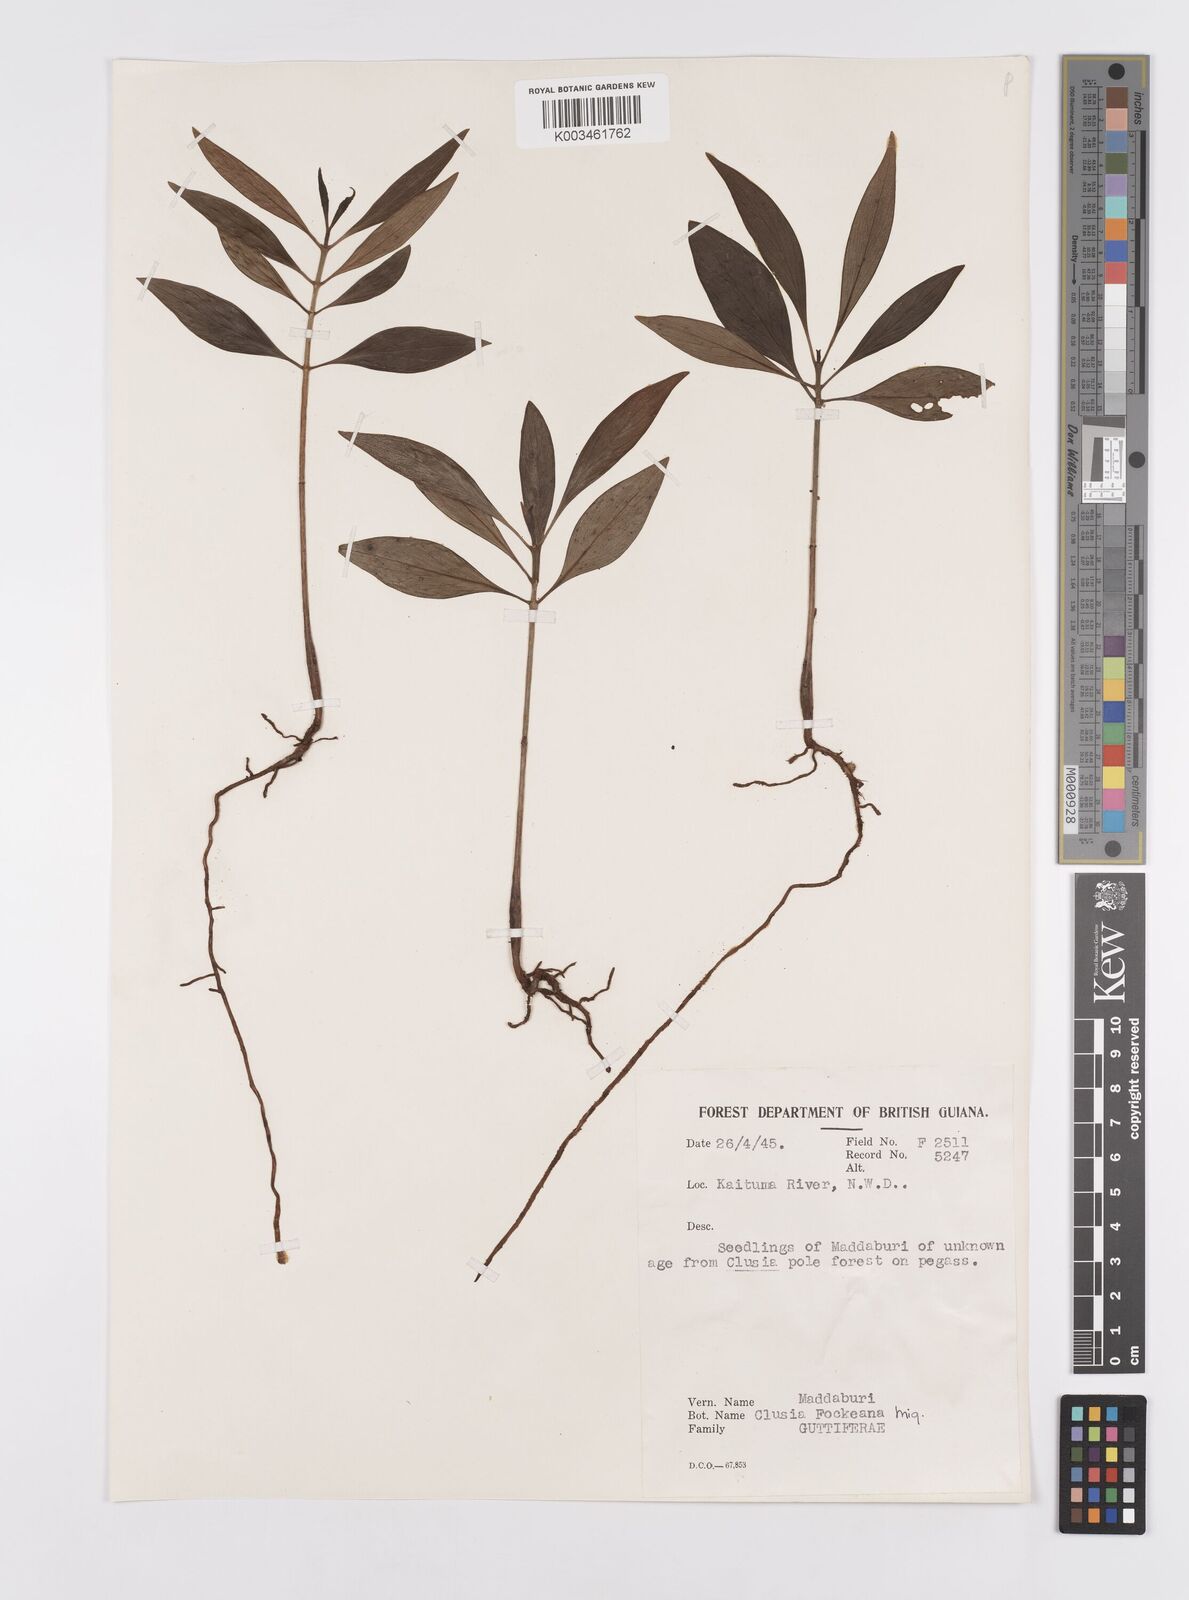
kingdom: Plantae
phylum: Tracheophyta
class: Magnoliopsida
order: Malpighiales
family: Clusiaceae
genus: Clusia
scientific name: Clusia fockeana
